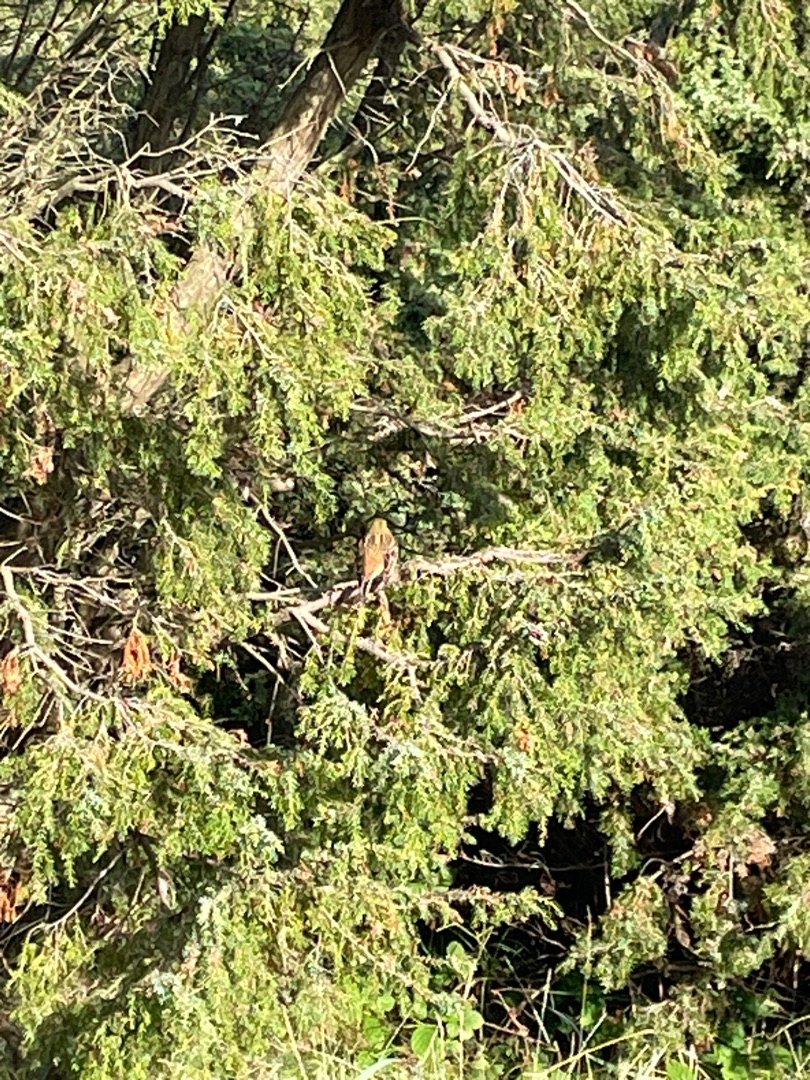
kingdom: Animalia
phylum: Chordata
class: Aves
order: Passeriformes
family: Emberizidae
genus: Emberiza
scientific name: Emberiza citrinella
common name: Gulspurv
